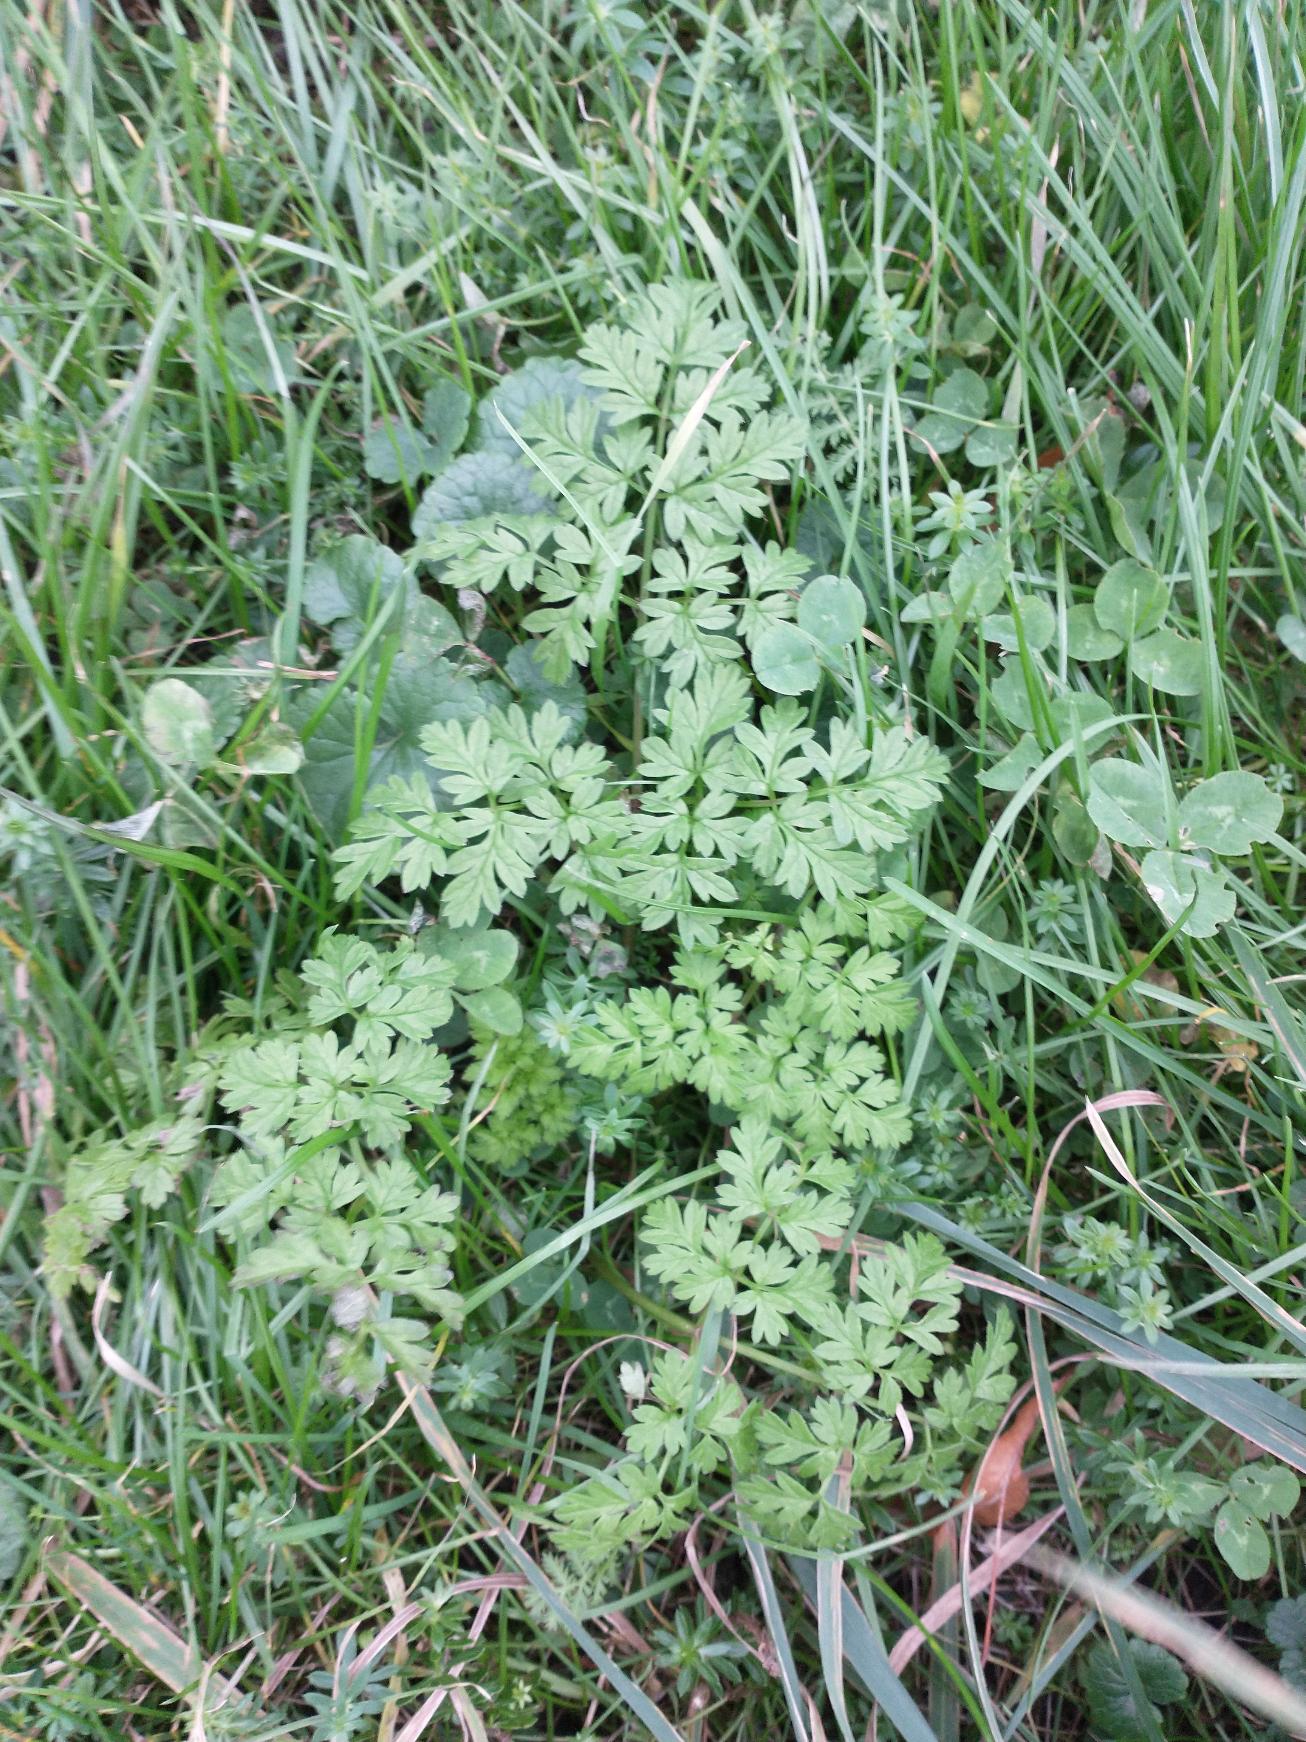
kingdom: Plantae
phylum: Tracheophyta
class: Magnoliopsida
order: Apiales
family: Apiaceae
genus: Seseli
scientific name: Seseli libanotis
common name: Hjorterod
